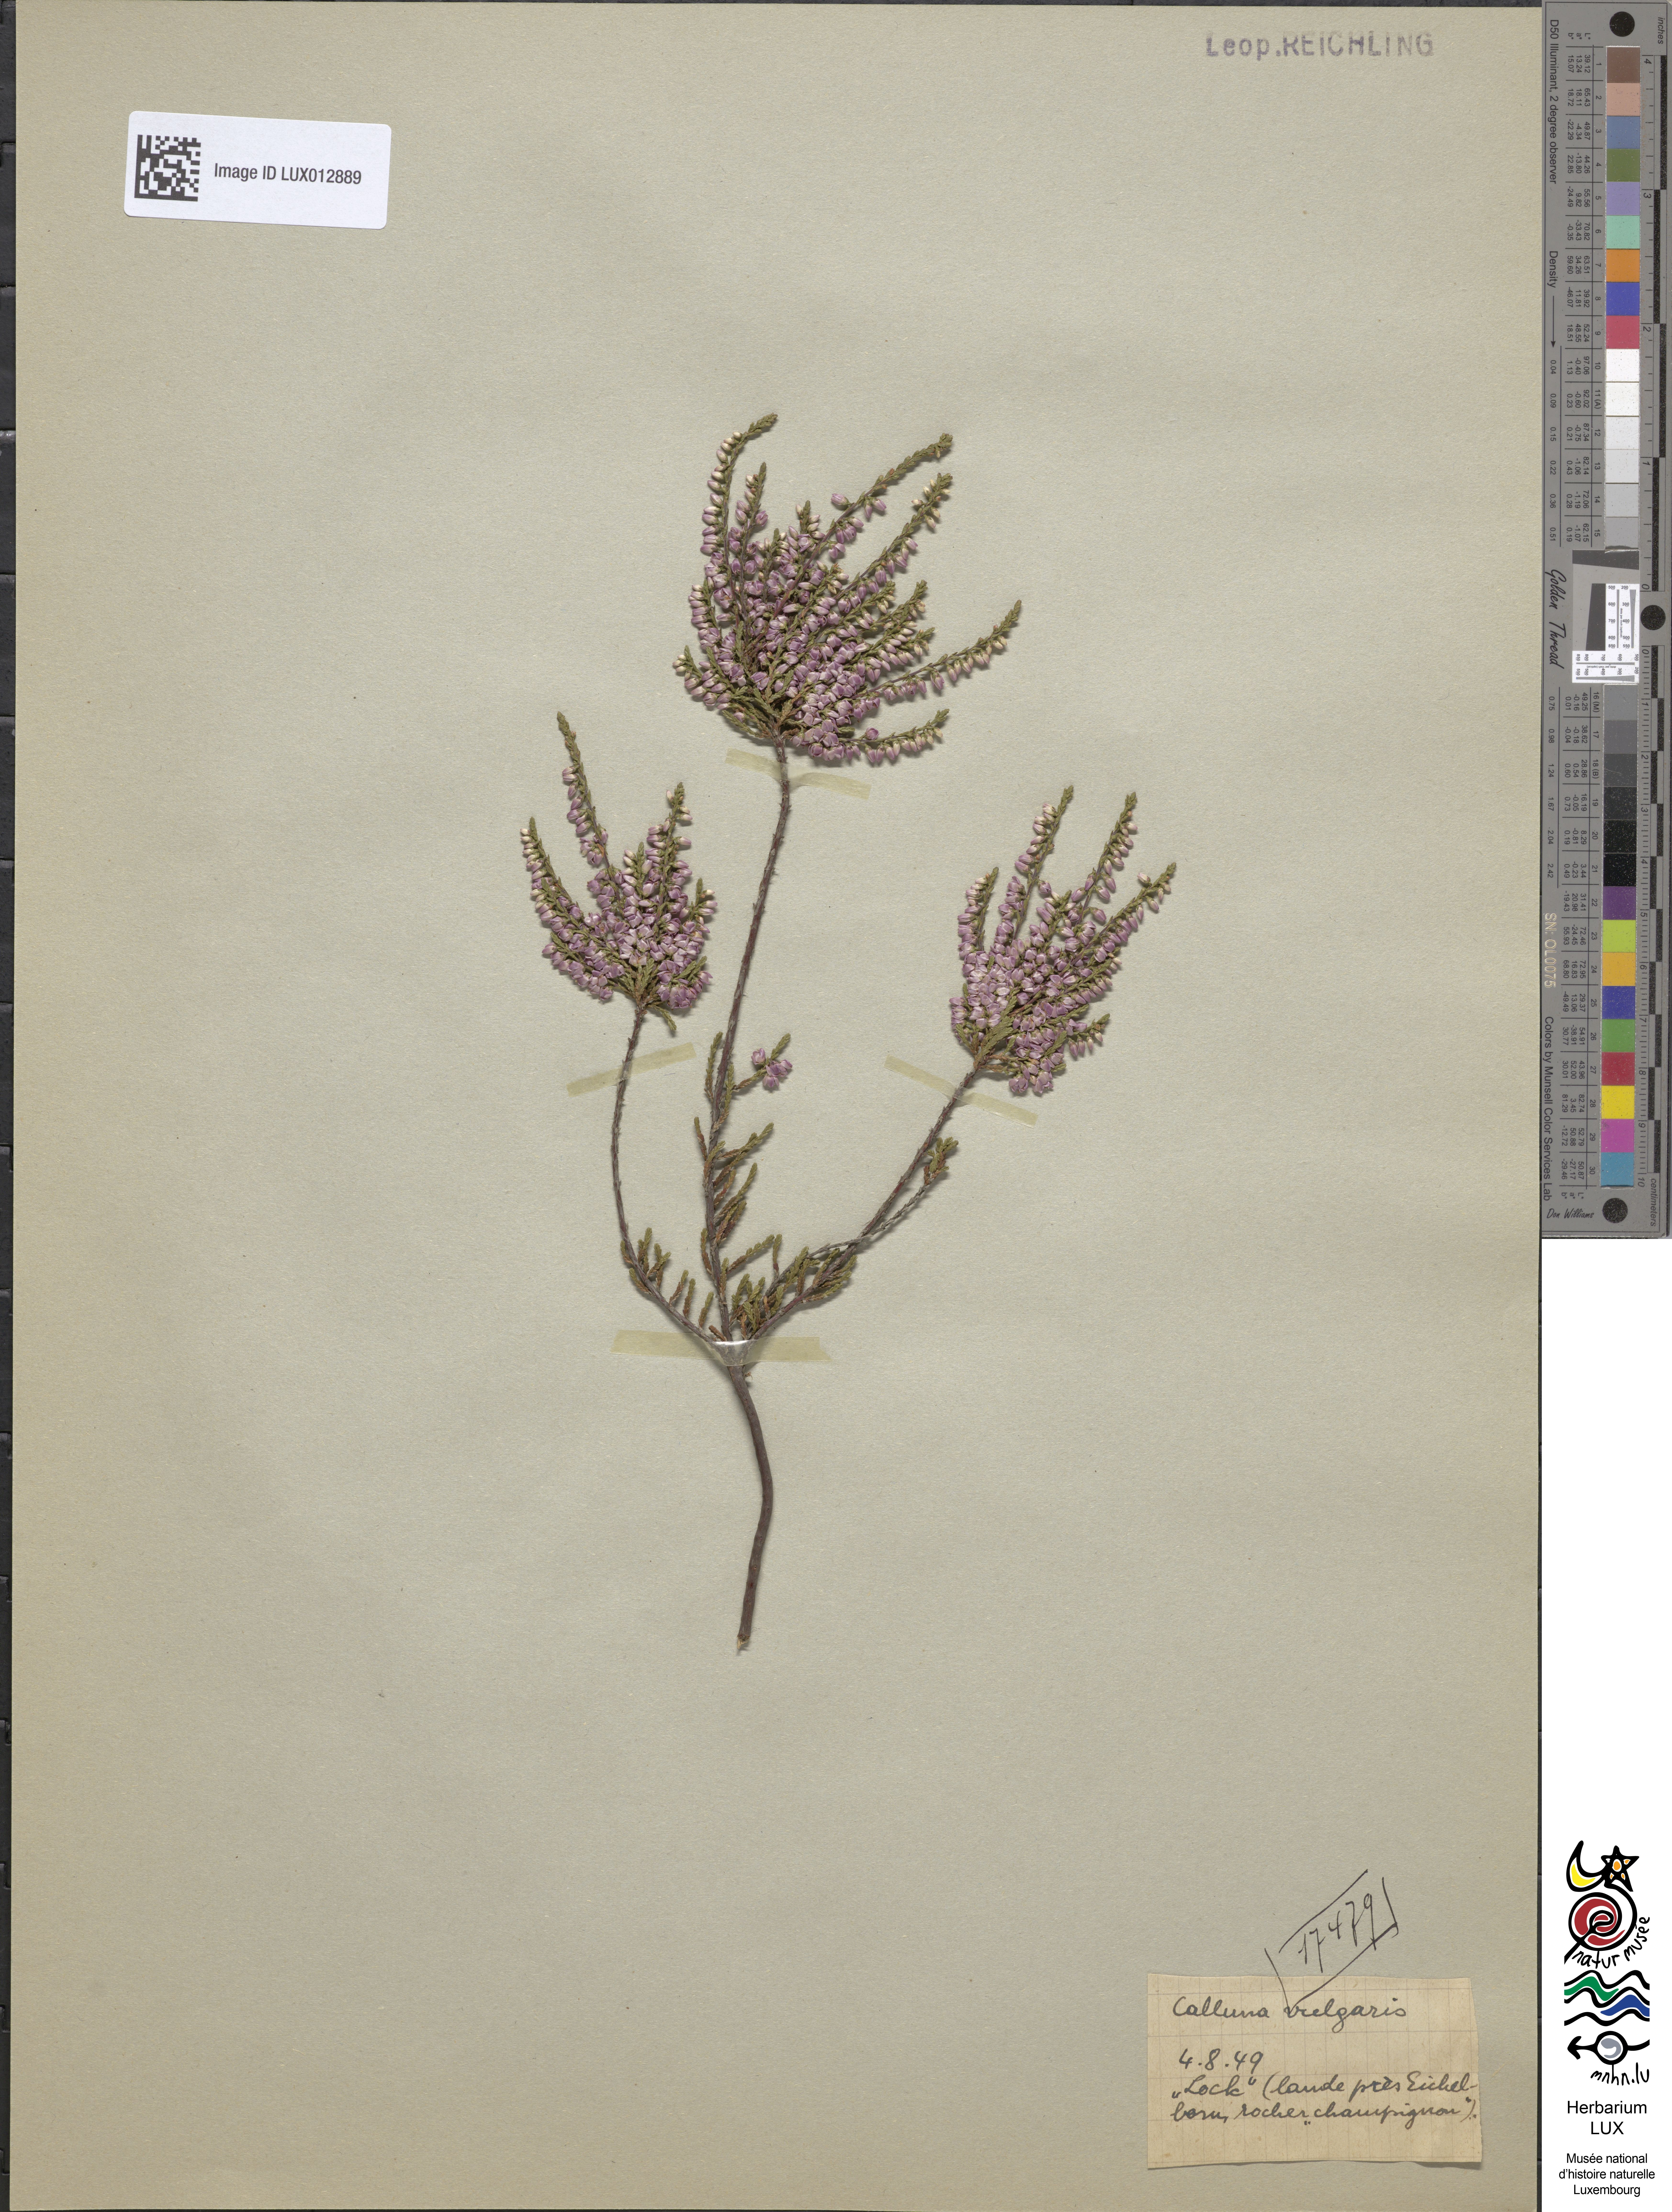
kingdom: Plantae
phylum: Tracheophyta
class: Magnoliopsida
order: Ericales
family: Ericaceae
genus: Calluna
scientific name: Calluna vulgaris
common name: Heather
